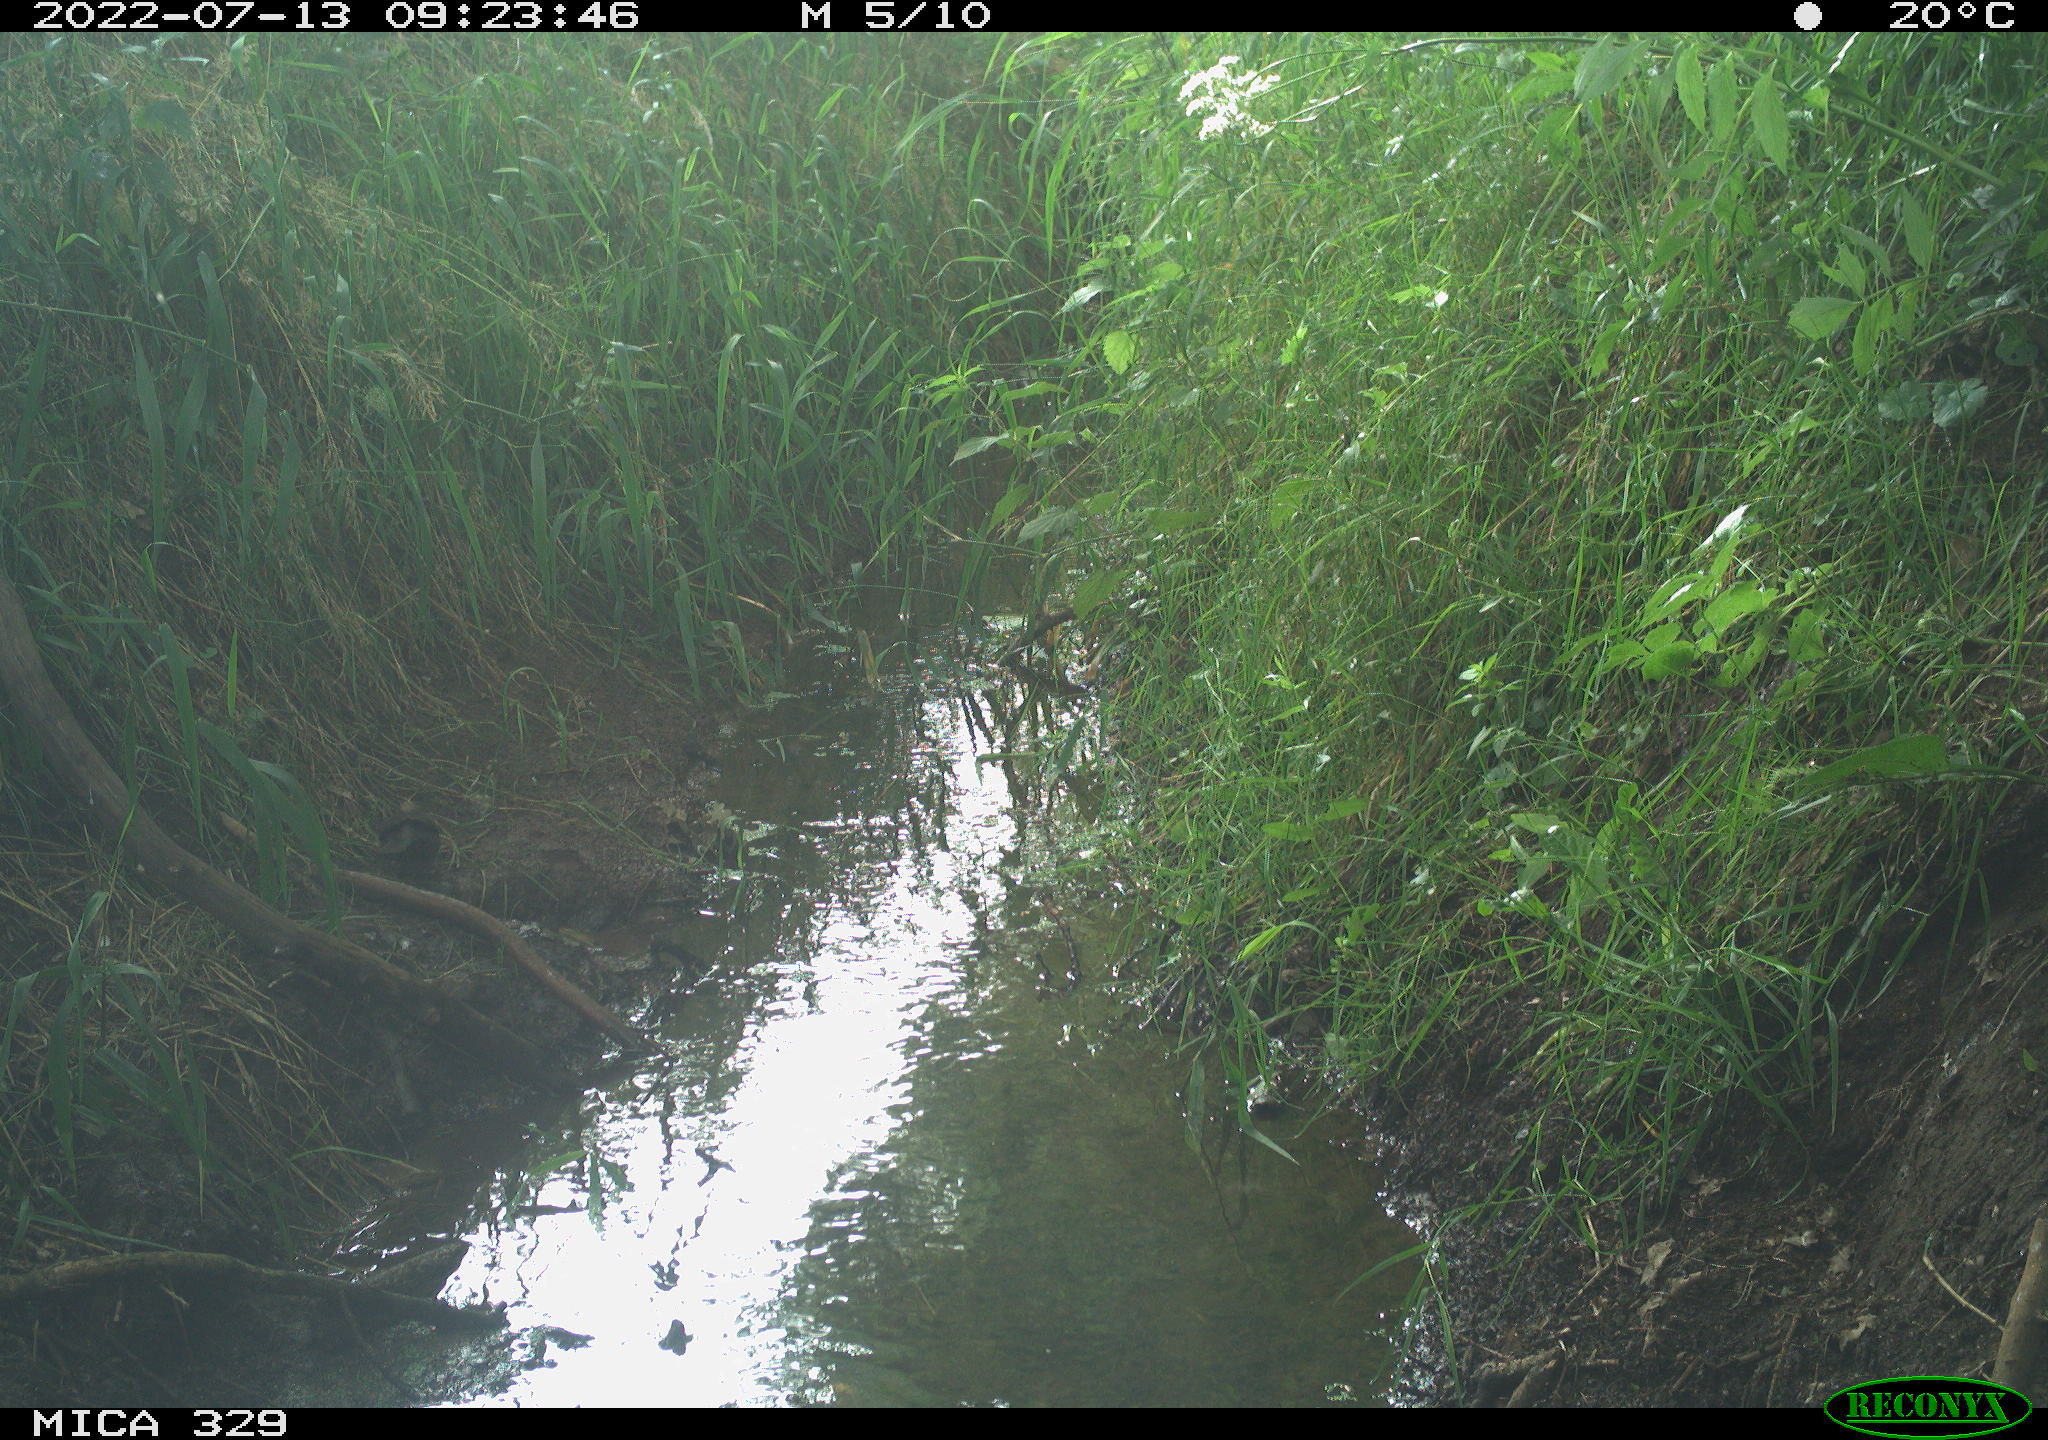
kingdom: Animalia
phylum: Chordata
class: Aves
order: Passeriformes
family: Turdidae
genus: Turdus
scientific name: Turdus merula
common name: Common blackbird
